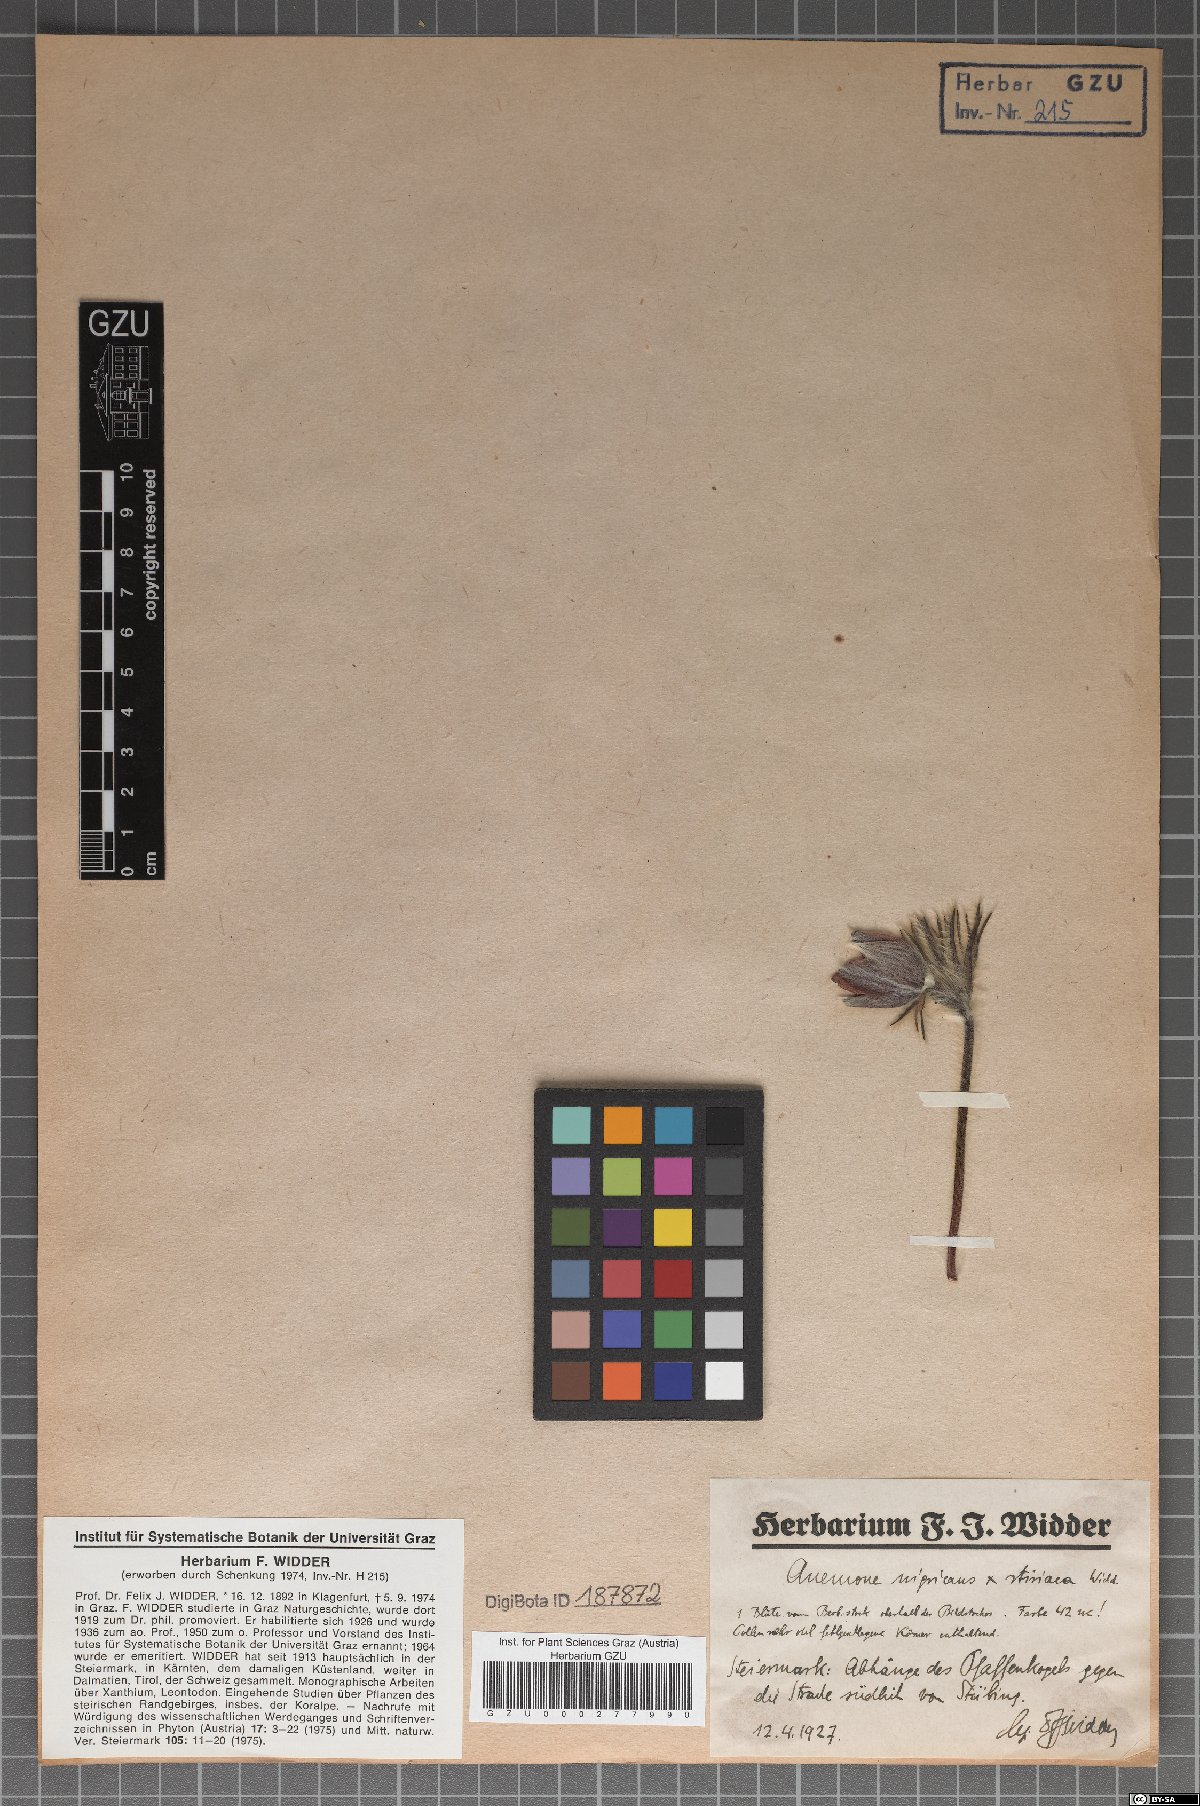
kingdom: Plantae
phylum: Tracheophyta
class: Magnoliopsida
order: Ranunculales
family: Ranunculaceae
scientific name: Ranunculaceae
